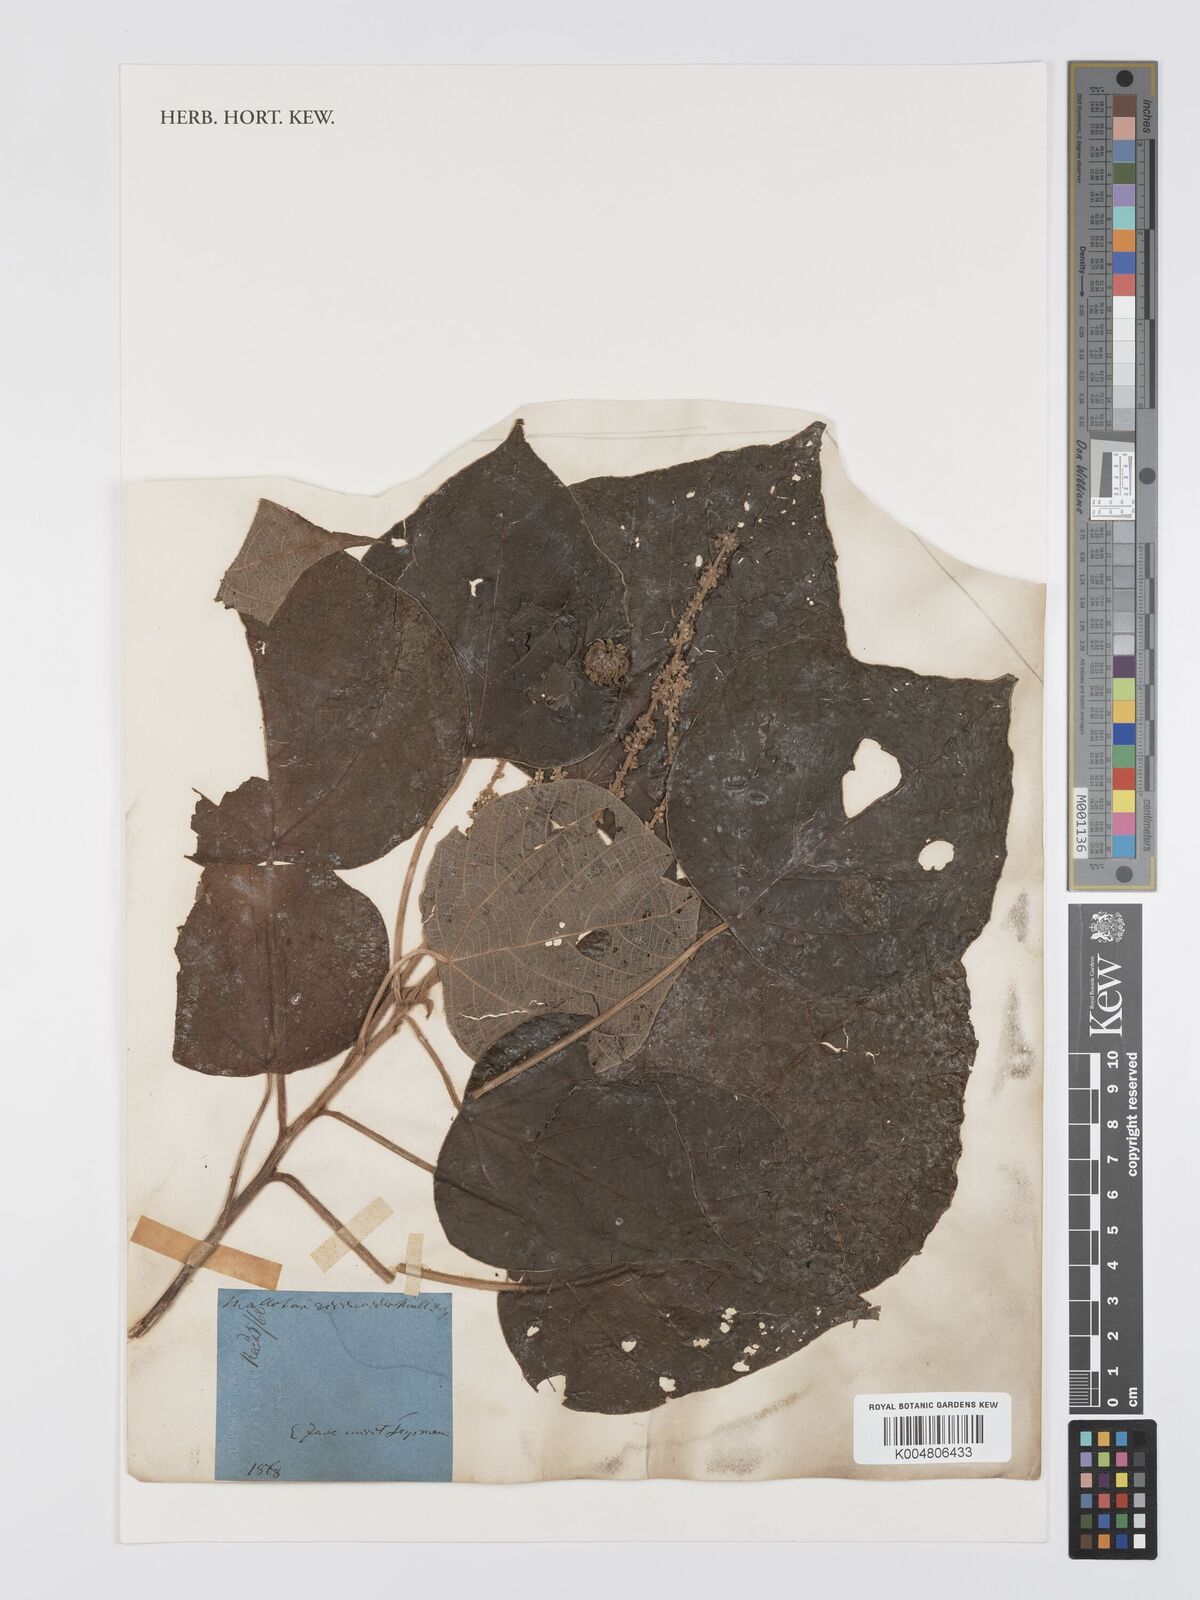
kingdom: Plantae
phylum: Tracheophyta
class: Magnoliopsida
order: Malpighiales
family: Euphorbiaceae
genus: Mallotus
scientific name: Mallotus mollissimus
